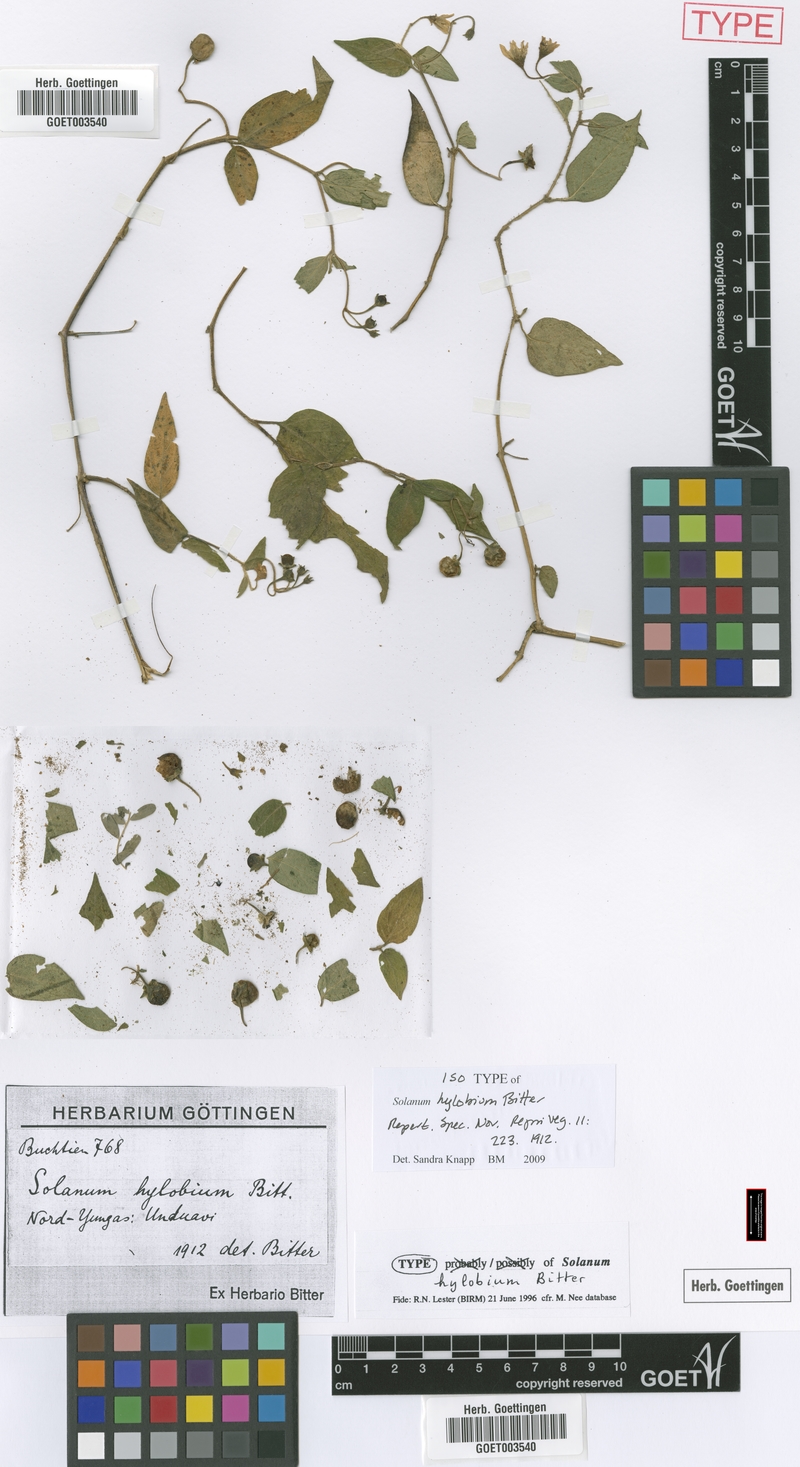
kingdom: Plantae
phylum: Tracheophyta
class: Magnoliopsida
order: Solanales
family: Solanaceae
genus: Solanum
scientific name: Solanum pallidum
